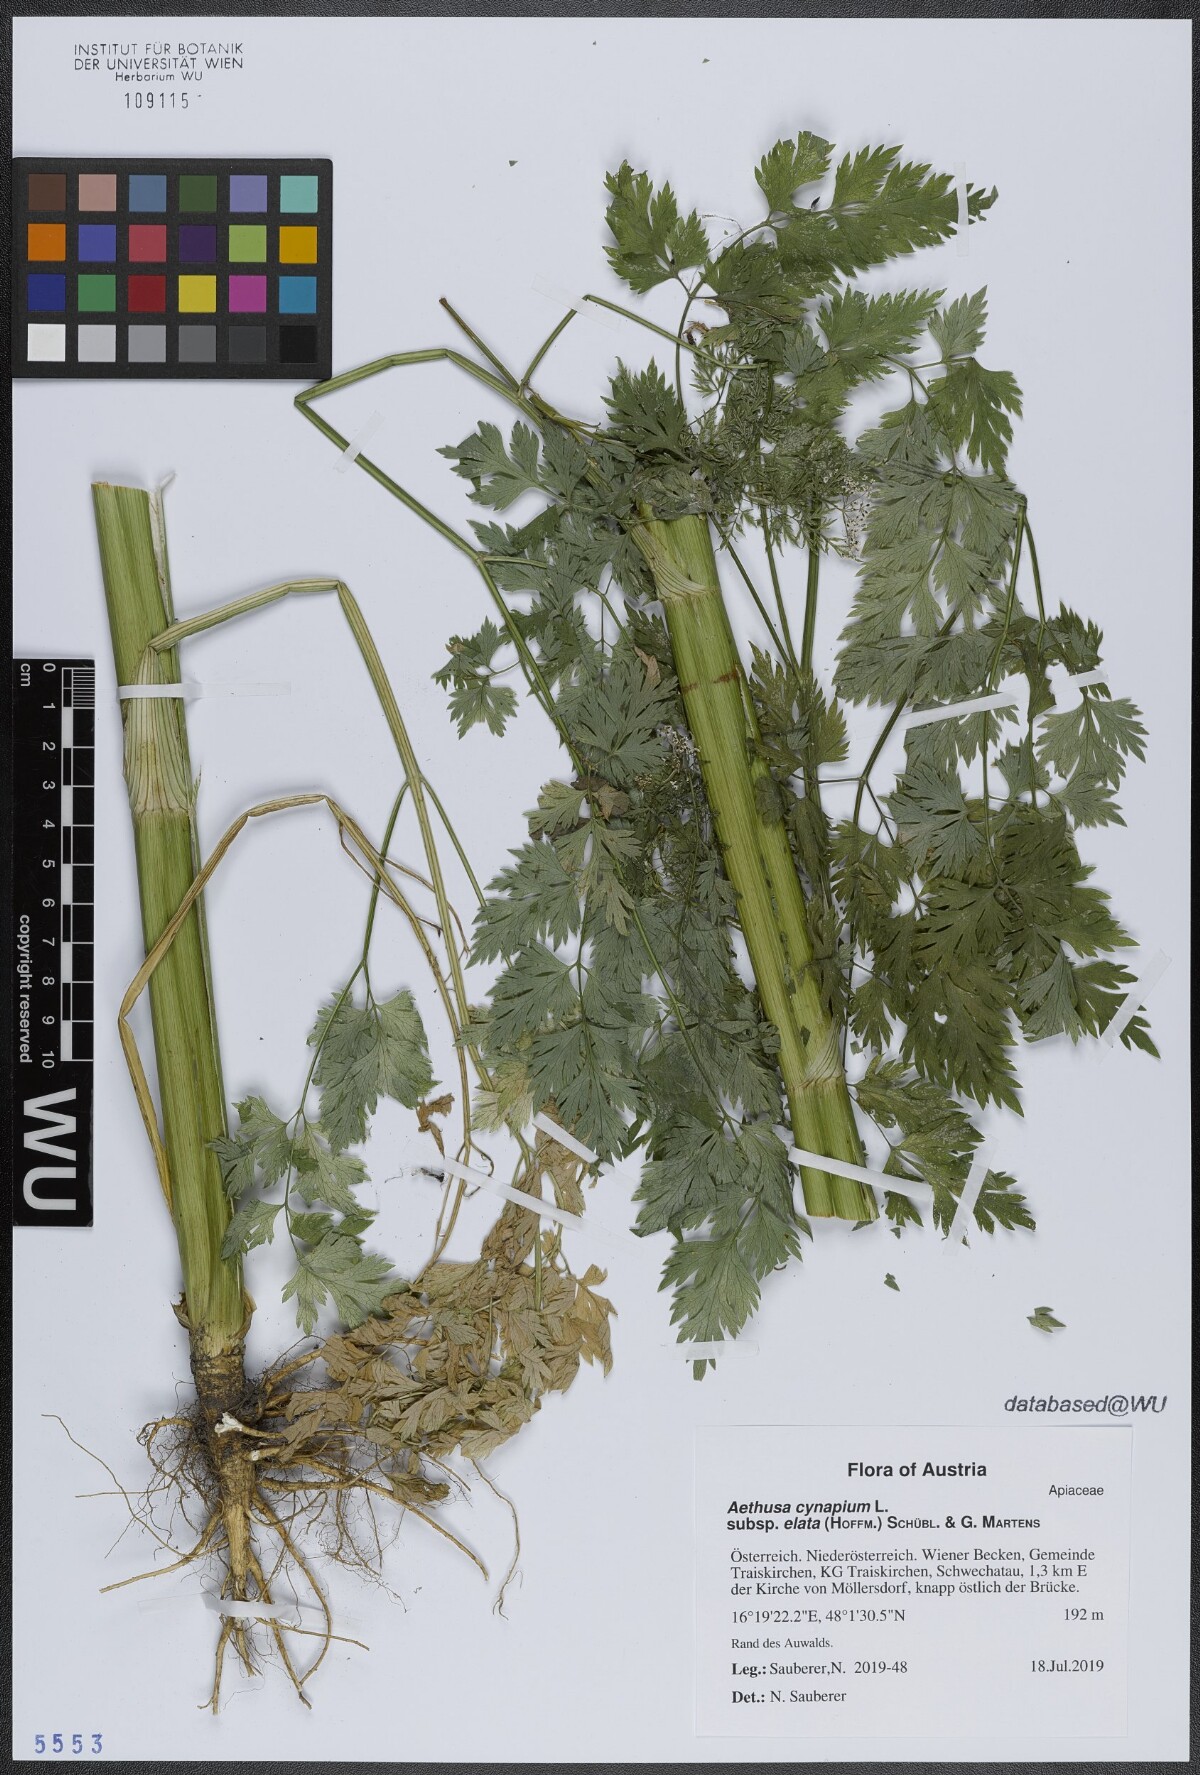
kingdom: Plantae
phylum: Tracheophyta
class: Magnoliopsida
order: Apiales
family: Apiaceae
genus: Aethusa
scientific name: Aethusa cynapium
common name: Fool's parsley
